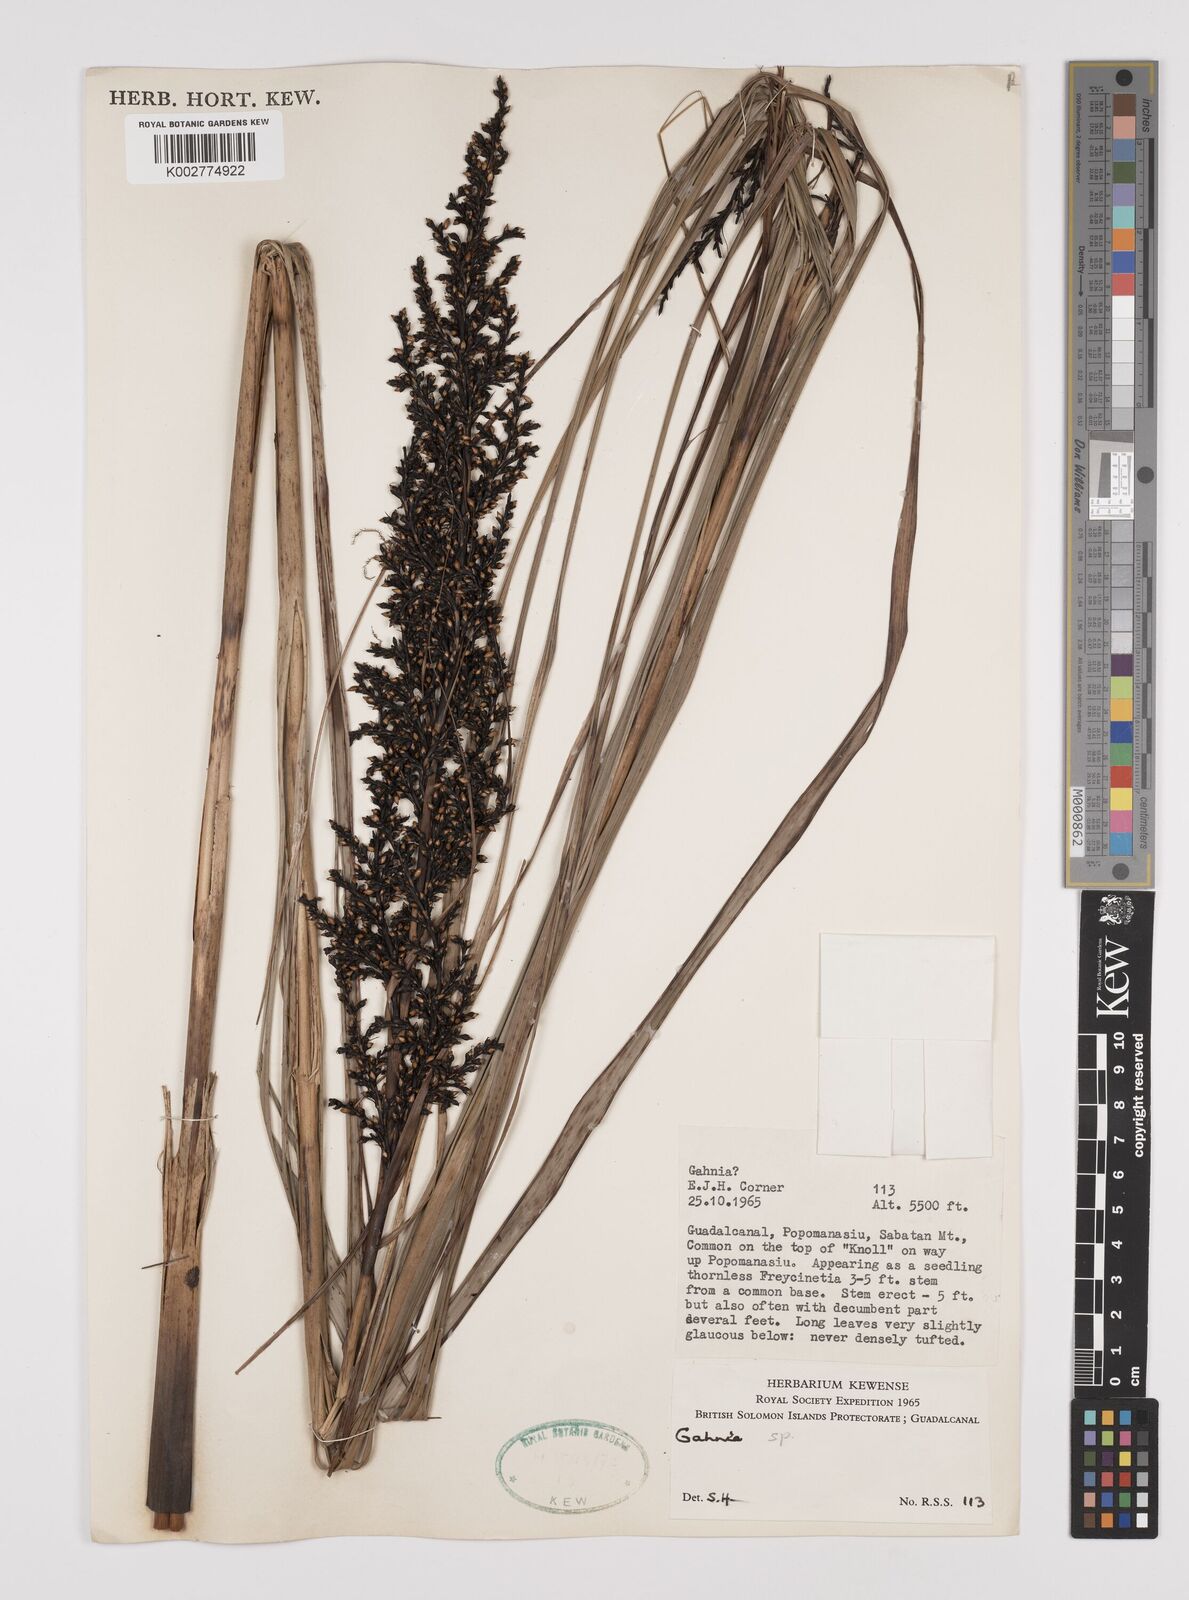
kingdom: Plantae
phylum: Tracheophyta
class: Liliopsida
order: Poales
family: Cyperaceae
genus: Gahnia
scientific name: Gahnia
